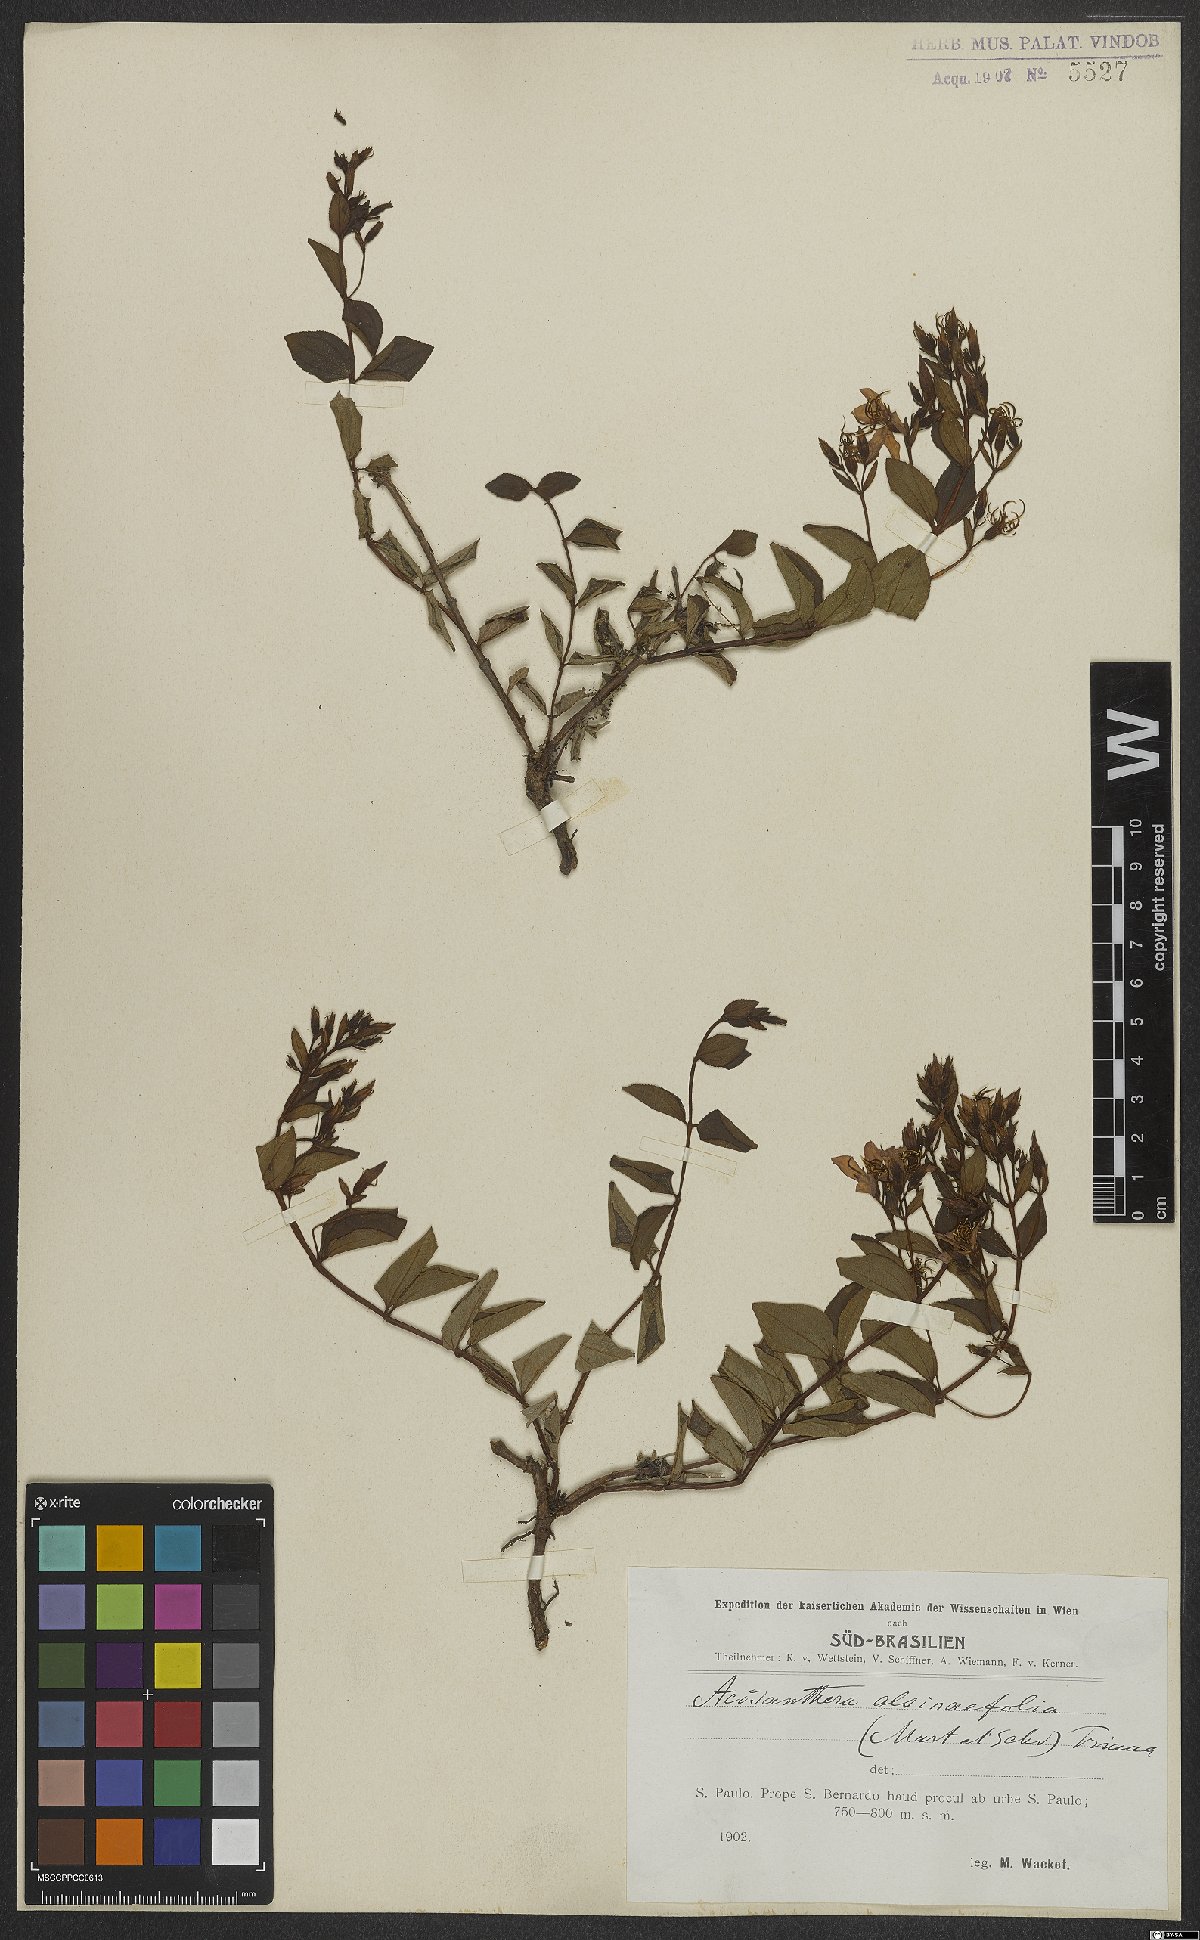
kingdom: Plantae
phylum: Tracheophyta
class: Magnoliopsida
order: Myrtales
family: Melastomataceae
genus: Acisanthera
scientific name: Acisanthera alsinefolia
